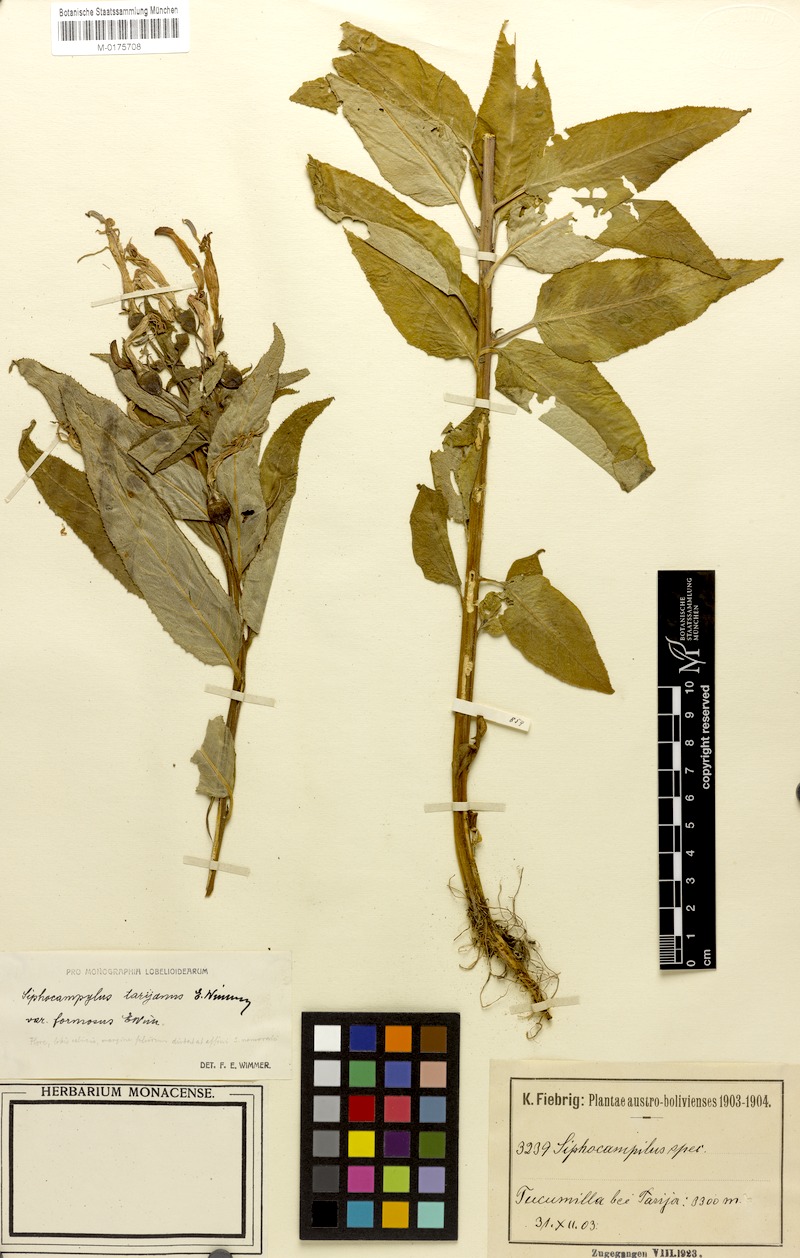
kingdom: Plantae
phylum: Tracheophyta
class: Magnoliopsida
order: Asterales
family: Campanulaceae
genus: Siphocampylus
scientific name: Siphocampylus nemoralis
